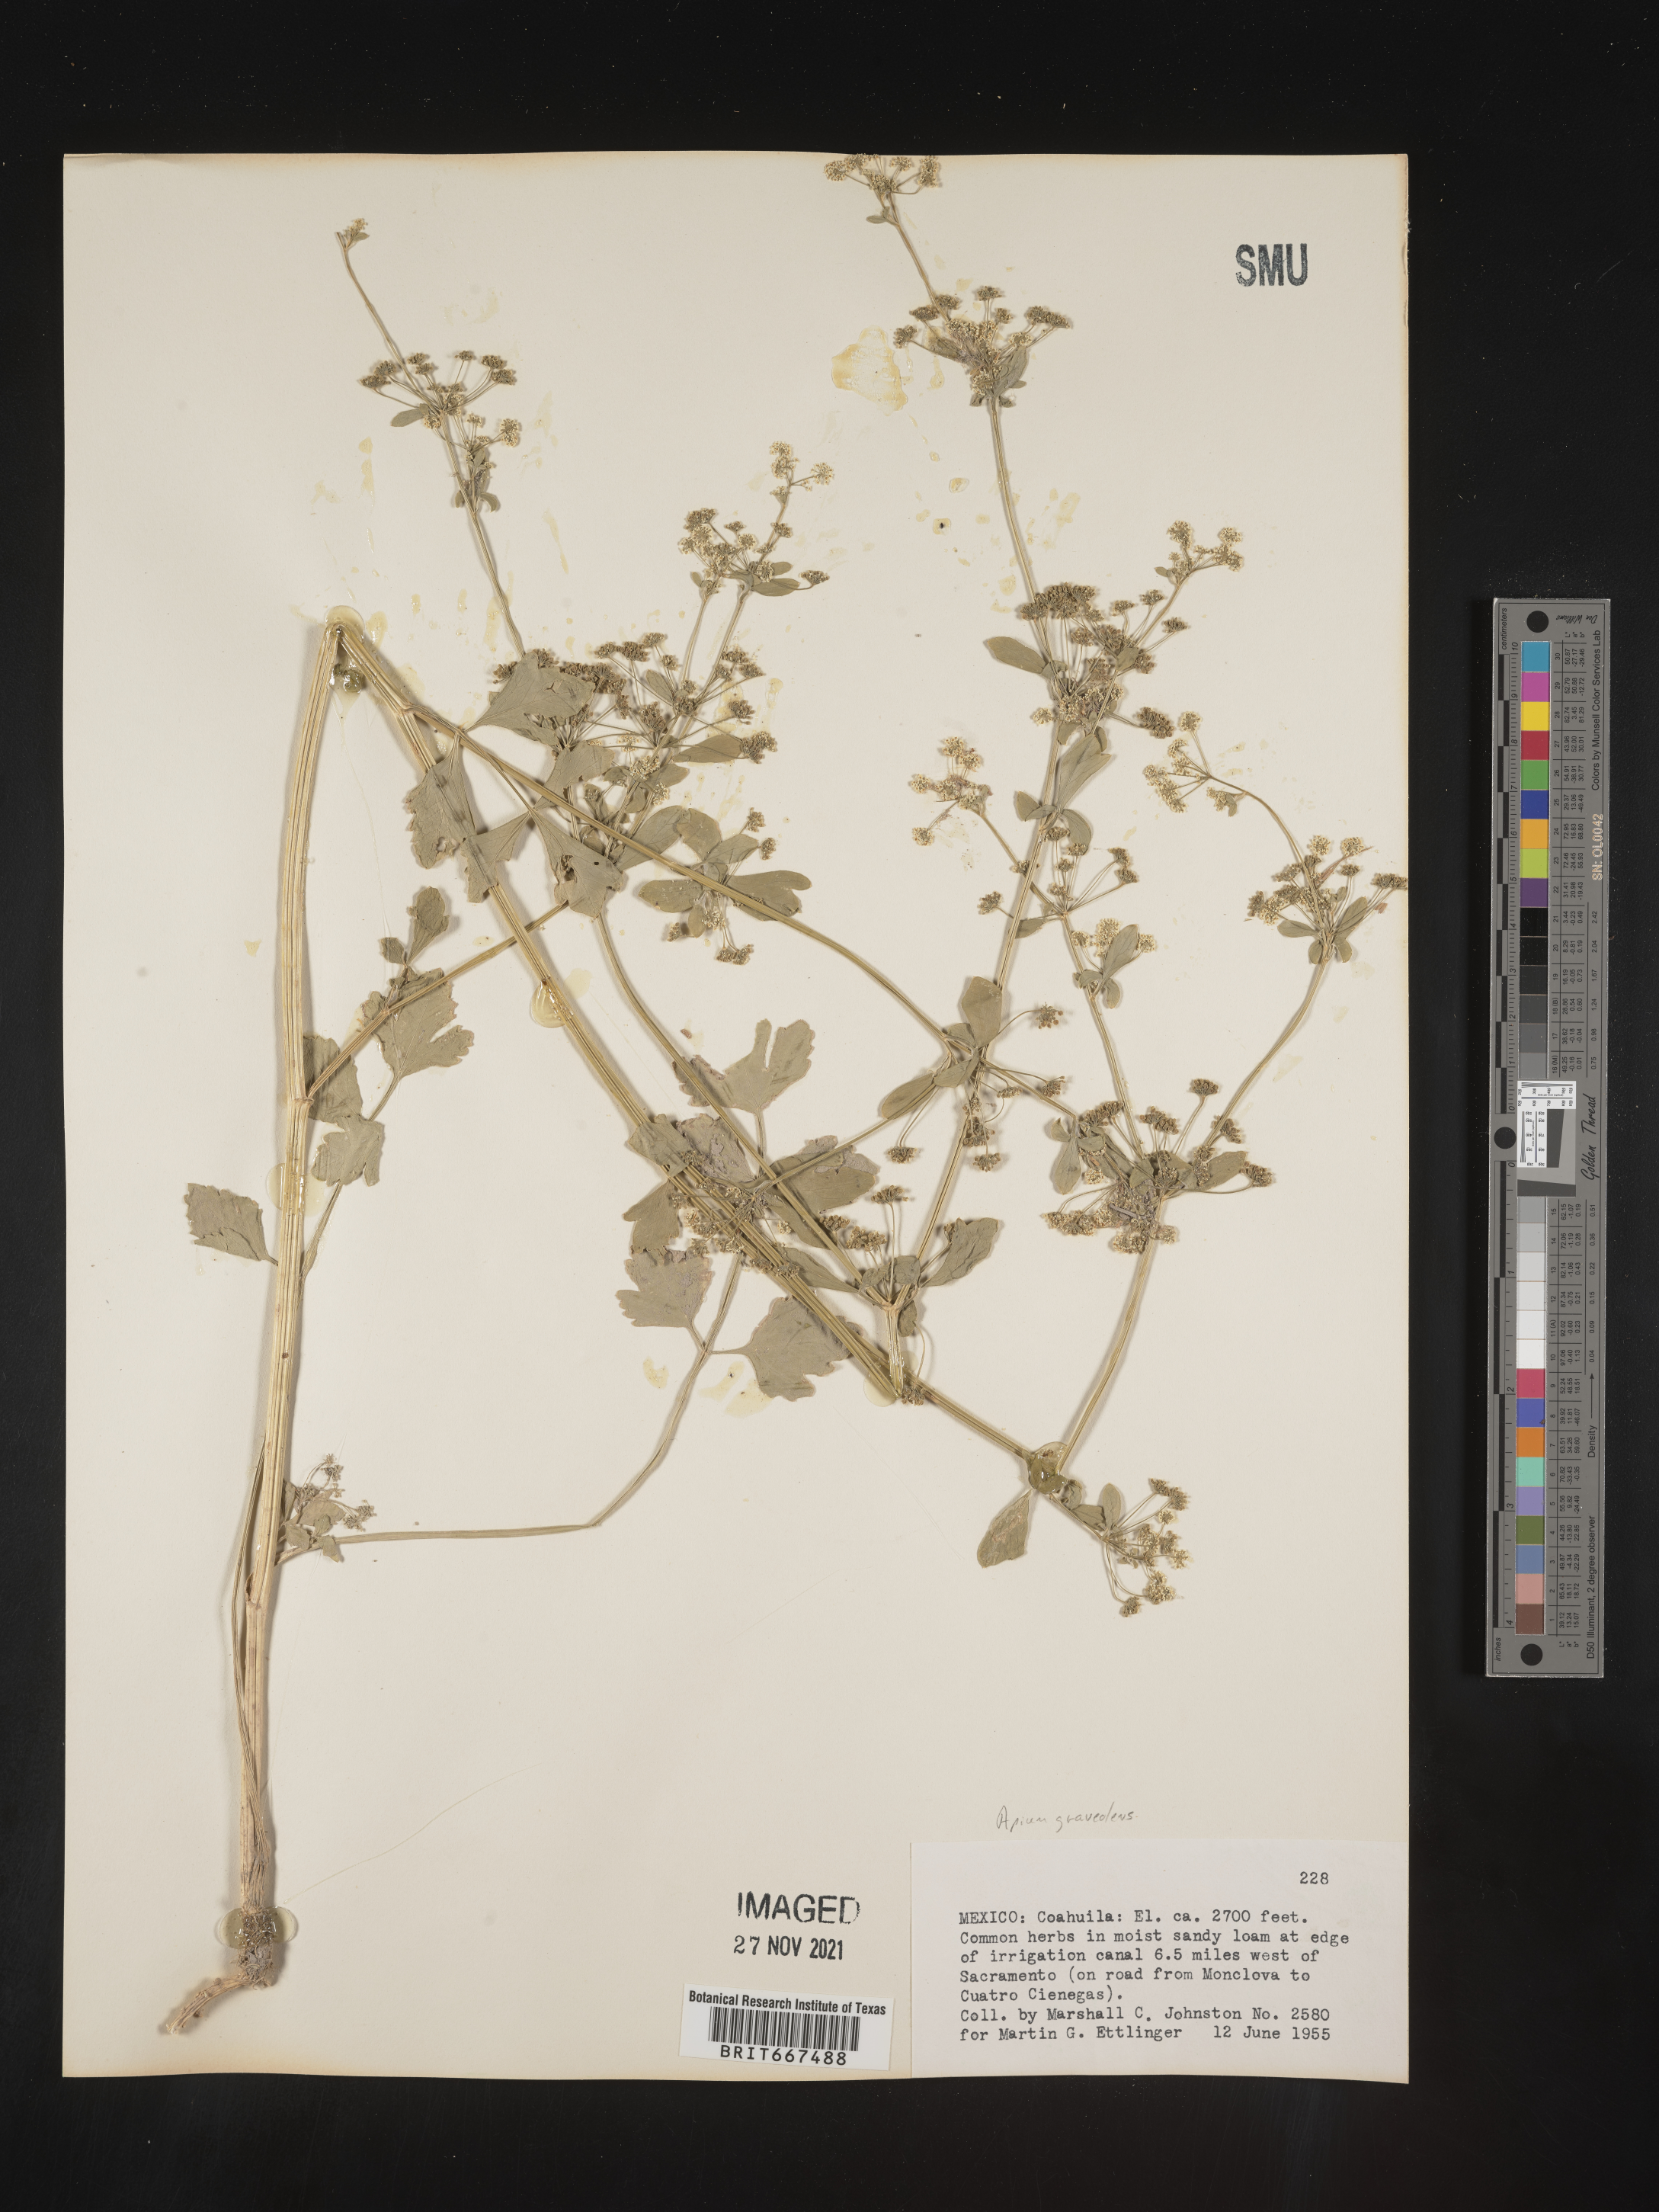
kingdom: Plantae
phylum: Tracheophyta
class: Magnoliopsida
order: Apiales
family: Apiaceae
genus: Apium
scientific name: Apium
